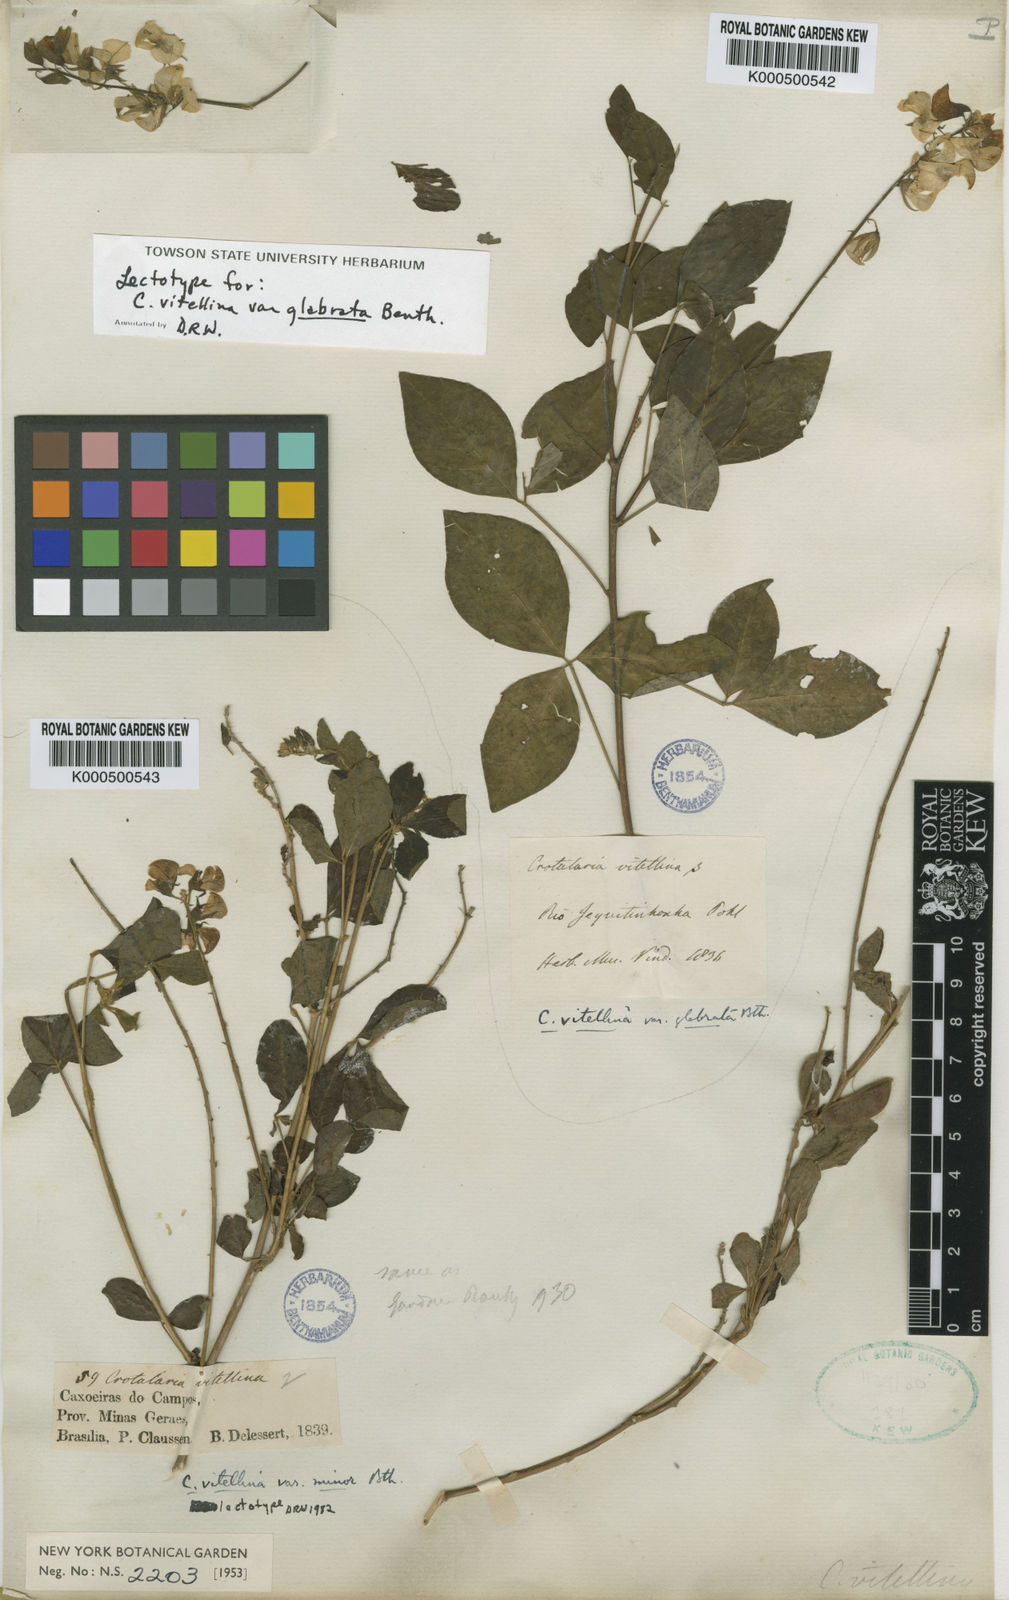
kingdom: Plantae
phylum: Tracheophyta
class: Magnoliopsida
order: Fabales
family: Fabaceae
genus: Crotalaria
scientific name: Crotalaria vitellina
